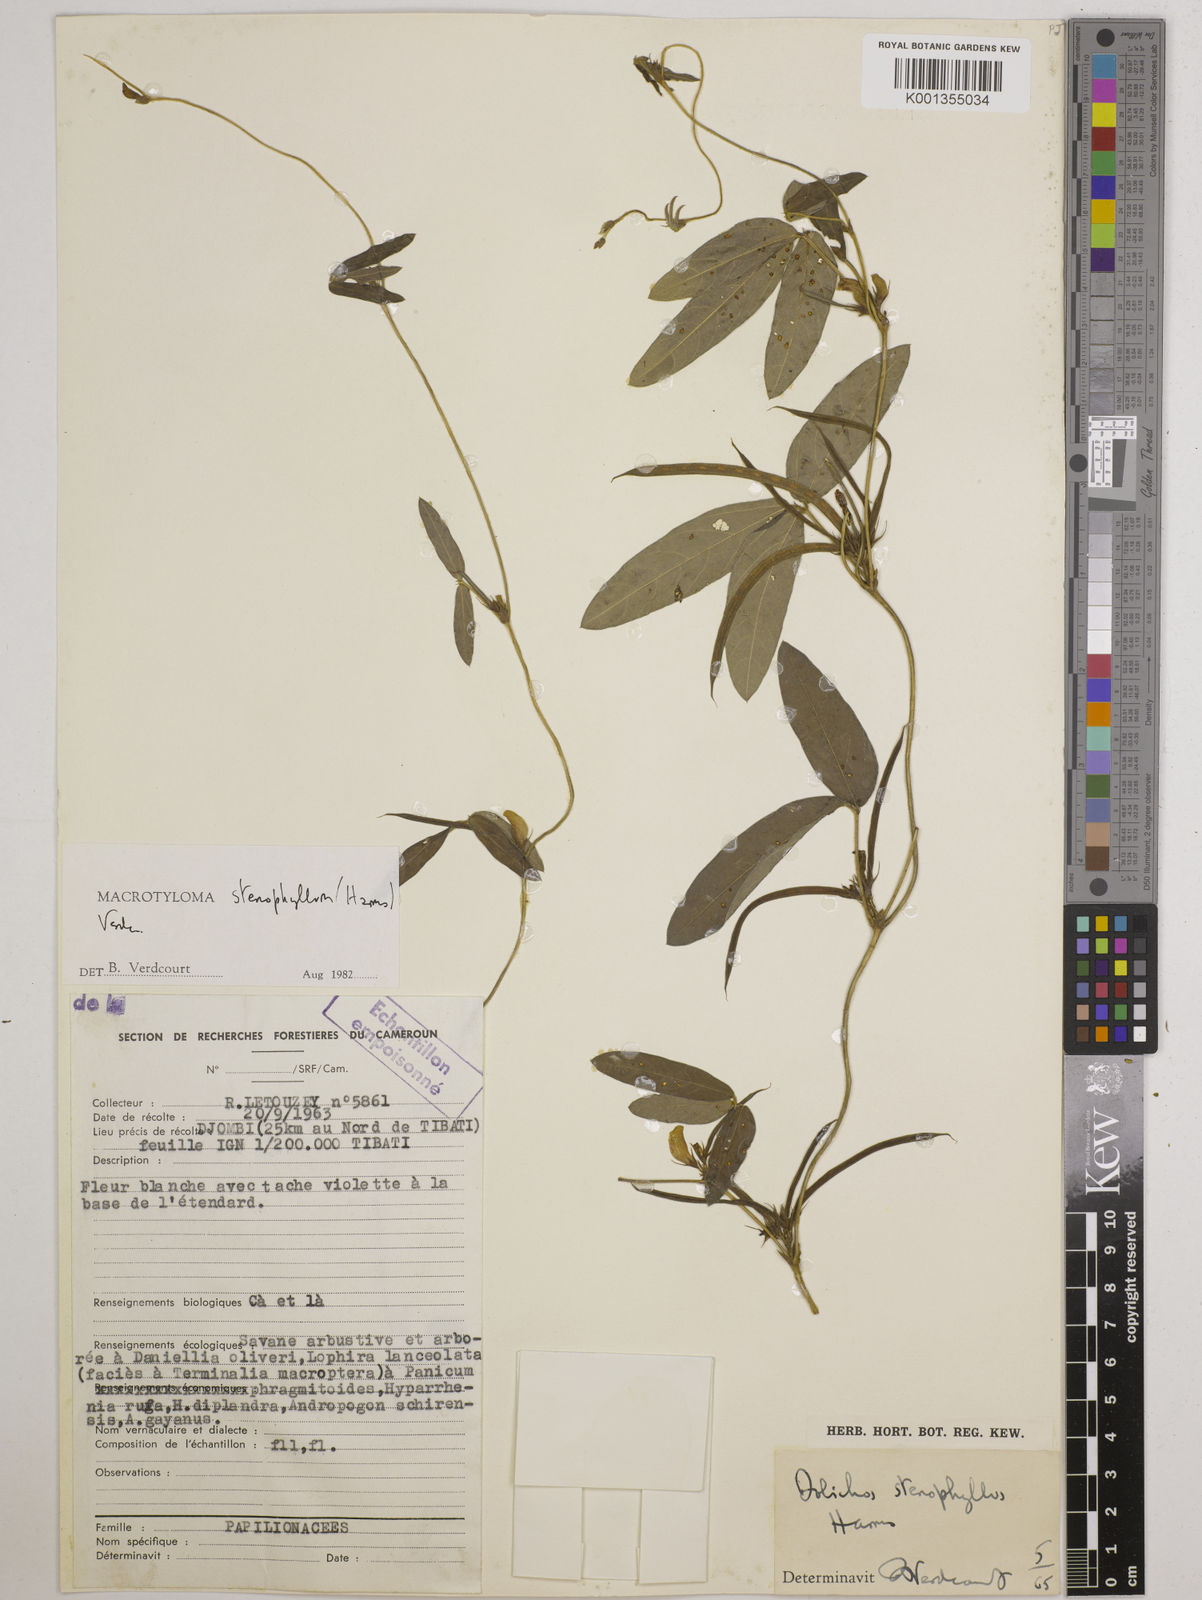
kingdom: Plantae
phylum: Tracheophyta
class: Magnoliopsida
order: Fabales
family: Fabaceae
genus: Macrotyloma
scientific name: Macrotyloma stenophyllum
